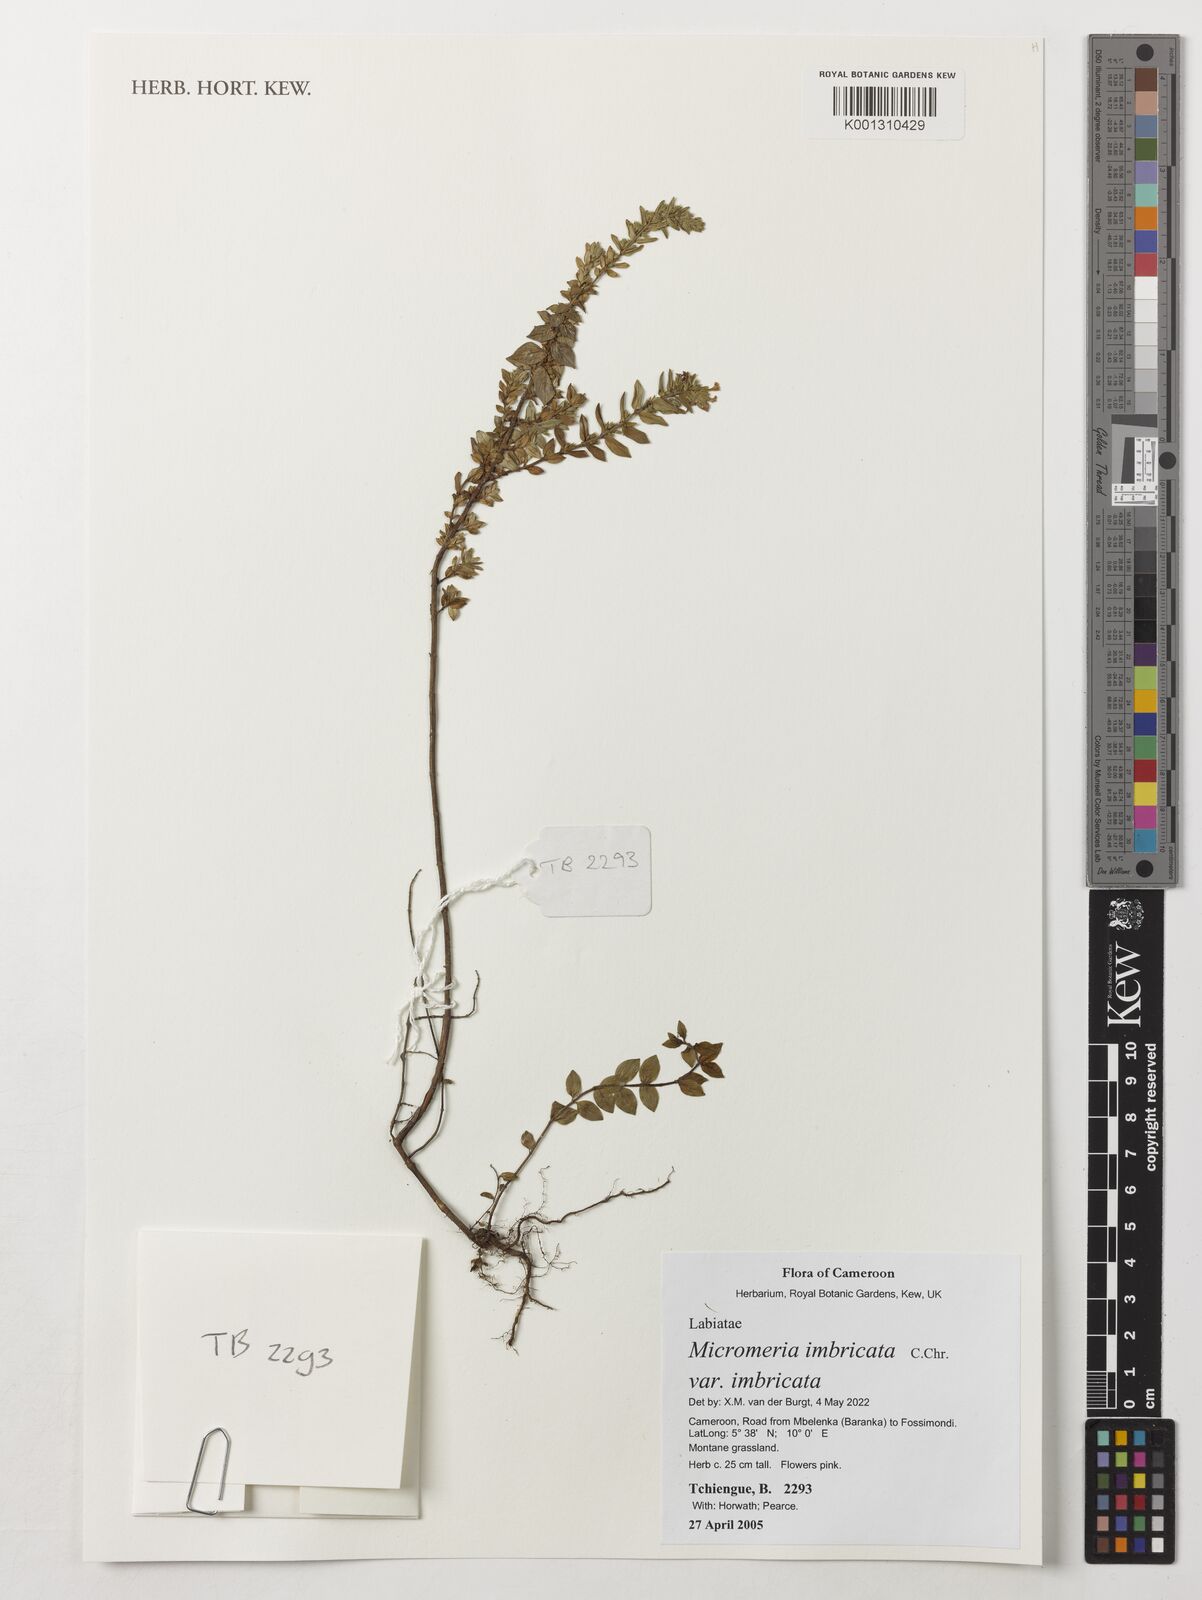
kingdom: Plantae
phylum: Tracheophyta
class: Magnoliopsida
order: Lamiales
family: Lamiaceae
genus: Micromeria
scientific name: Micromeria imbricata
